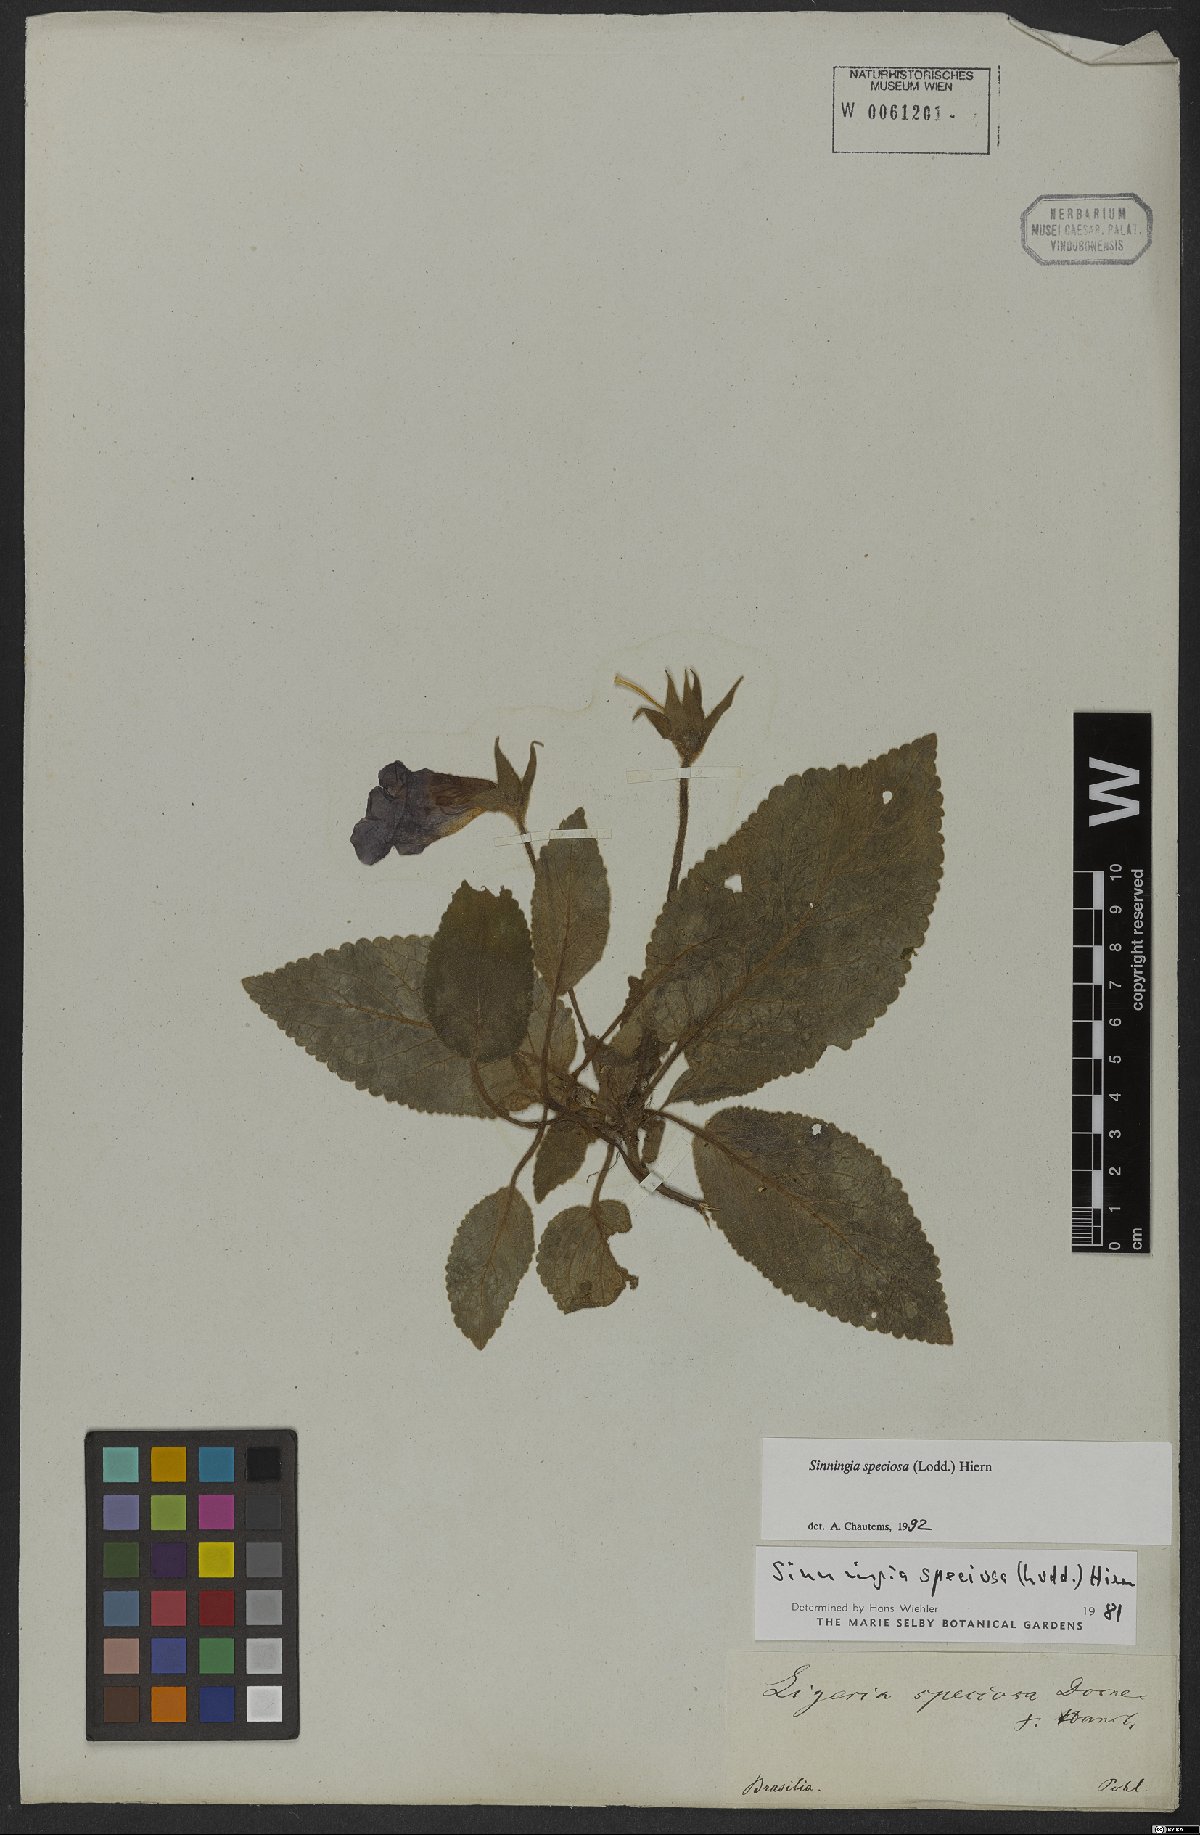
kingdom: Plantae
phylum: Tracheophyta
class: Magnoliopsida
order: Lamiales
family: Gesneriaceae
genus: Sinningia
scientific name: Sinningia speciosa
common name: Brazilian gloxinia
